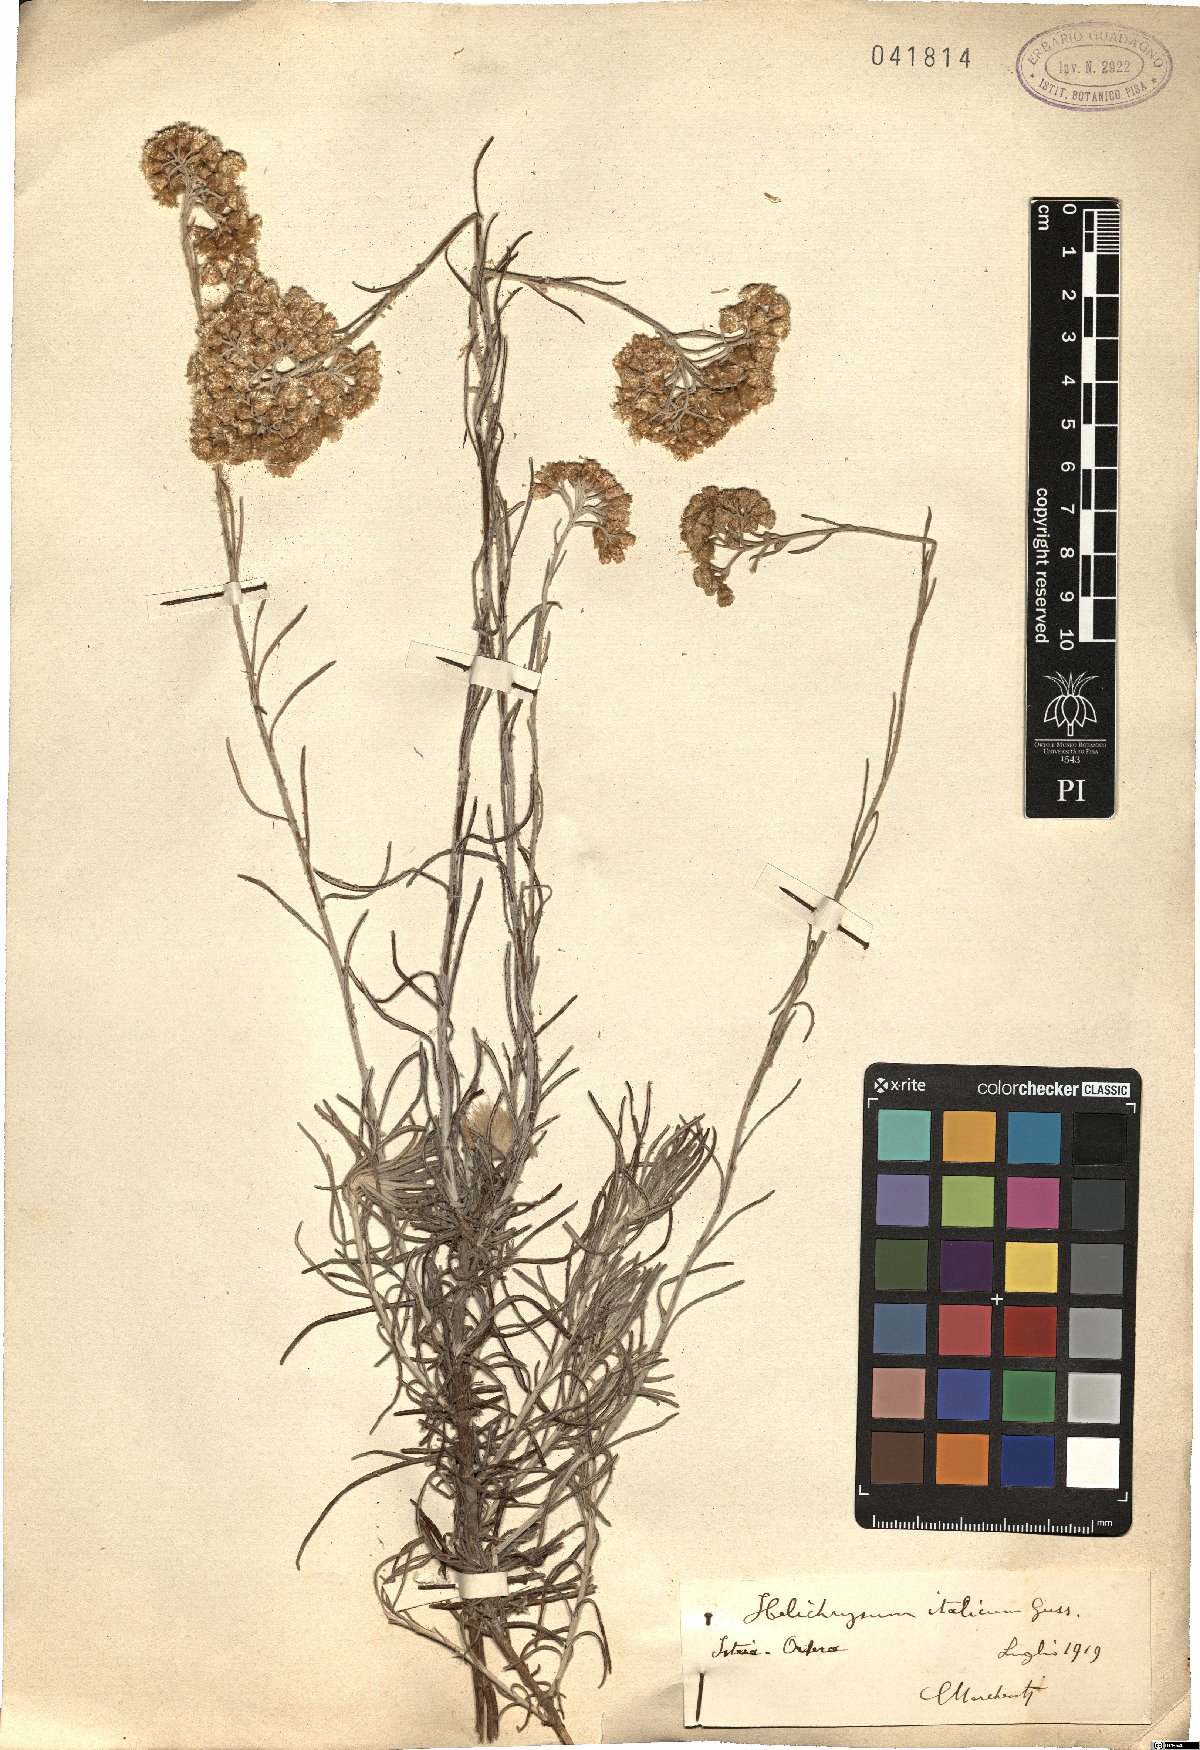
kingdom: Plantae
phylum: Tracheophyta
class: Magnoliopsida
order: Asterales
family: Asteraceae
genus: Helichrysum
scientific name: Helichrysum italicum
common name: Curryplant
